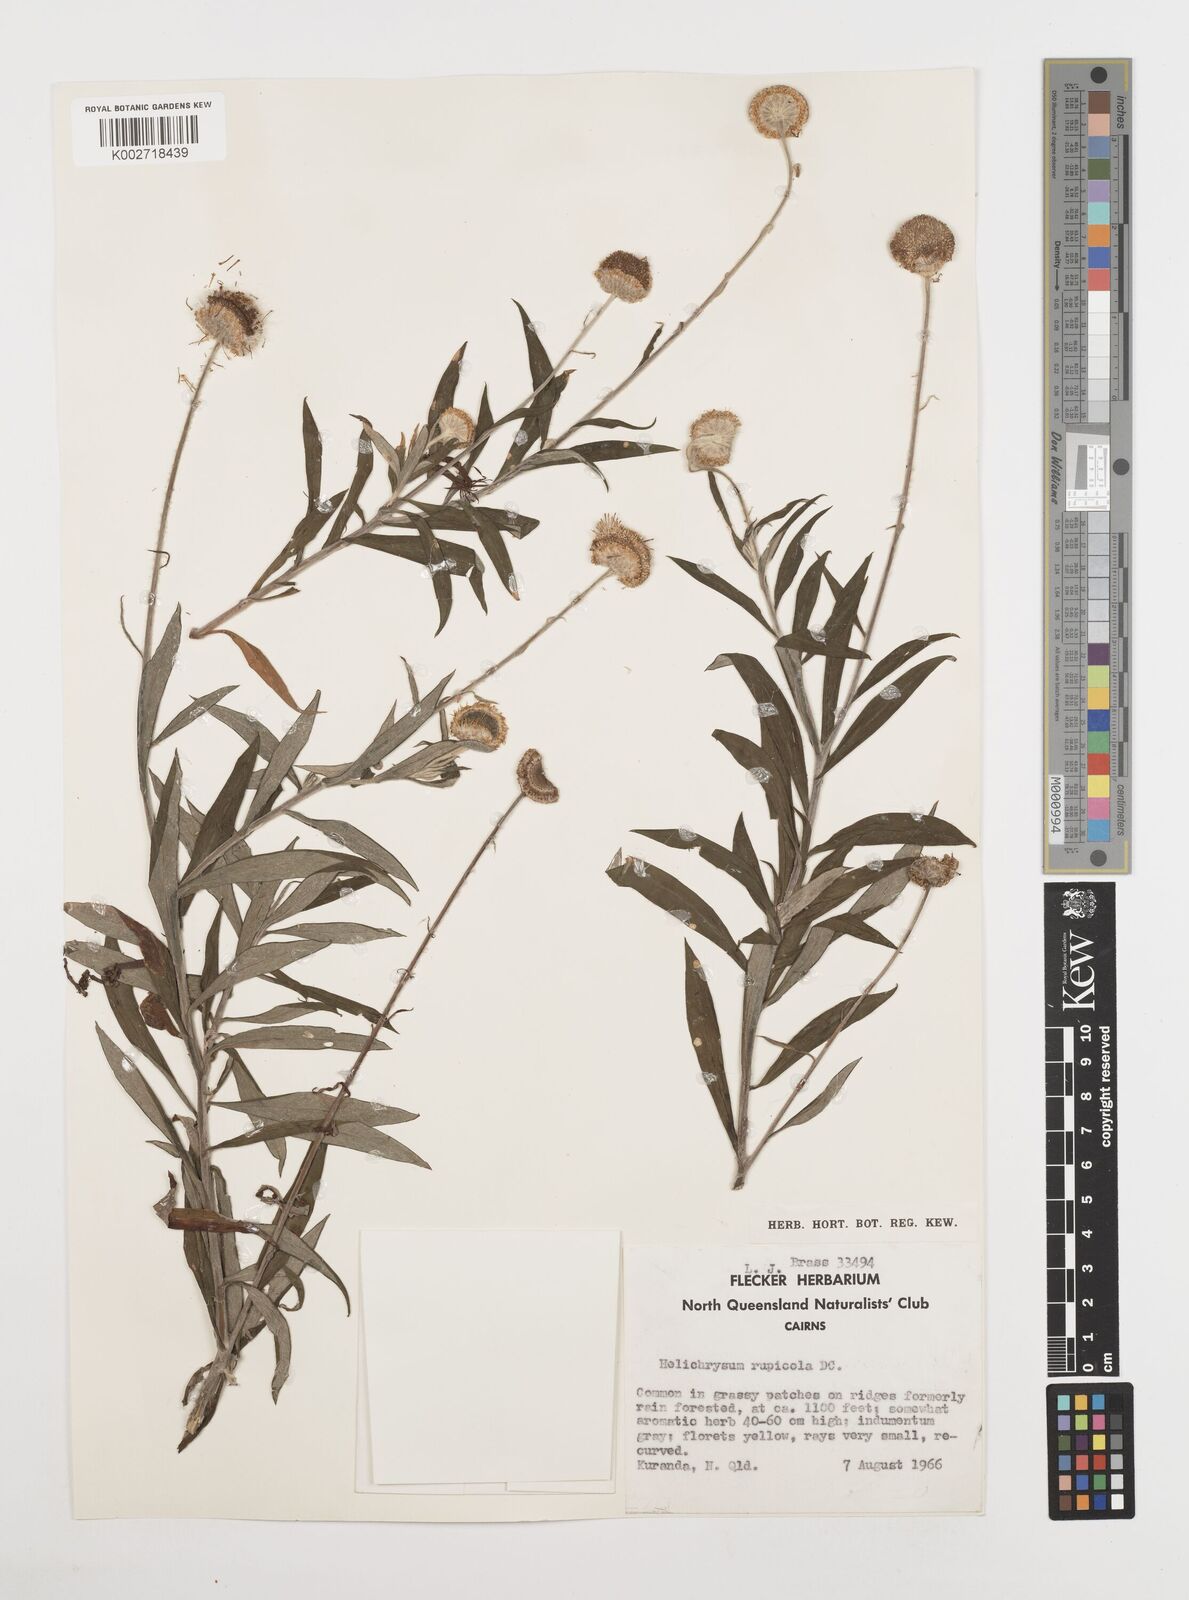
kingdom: Plantae
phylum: Tracheophyta
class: Magnoliopsida
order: Asterales
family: Asteraceae
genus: Coronidium
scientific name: Coronidium rupicola
